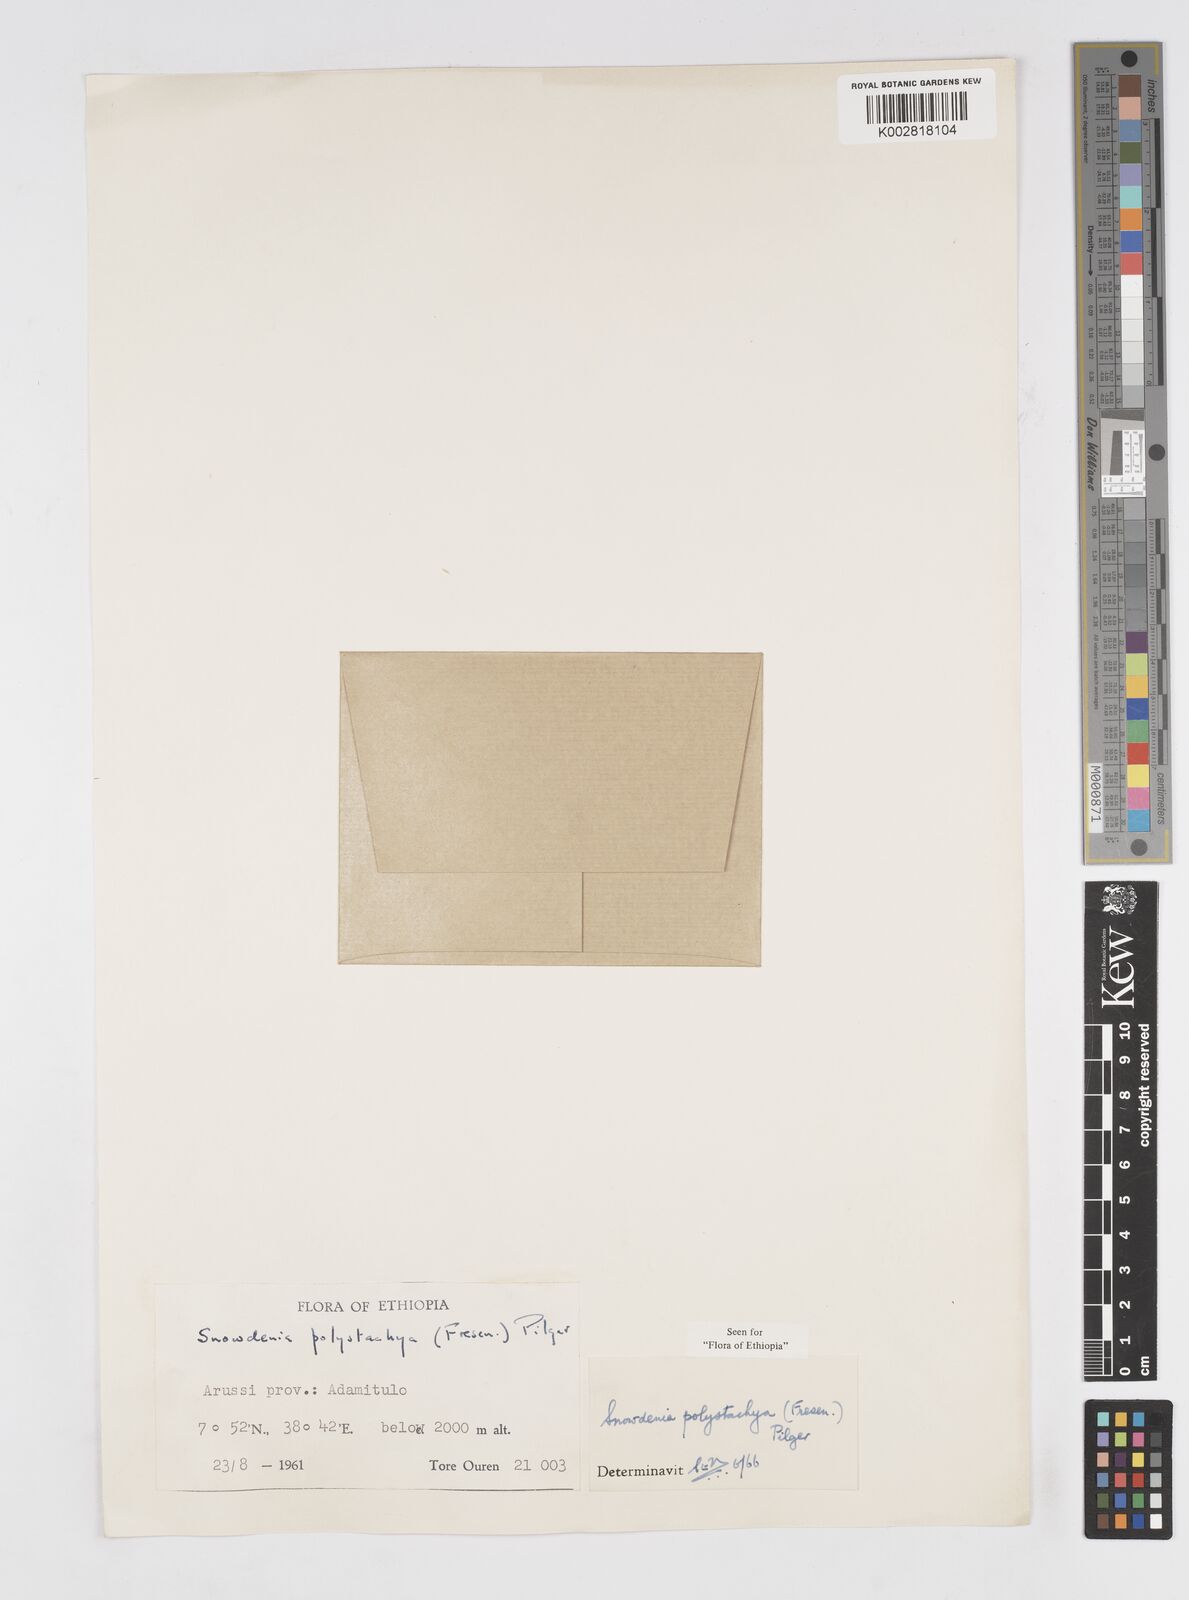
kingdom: Plantae
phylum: Tracheophyta
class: Liliopsida
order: Poales
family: Poaceae
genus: Snowdenia
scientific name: Snowdenia polystachya
